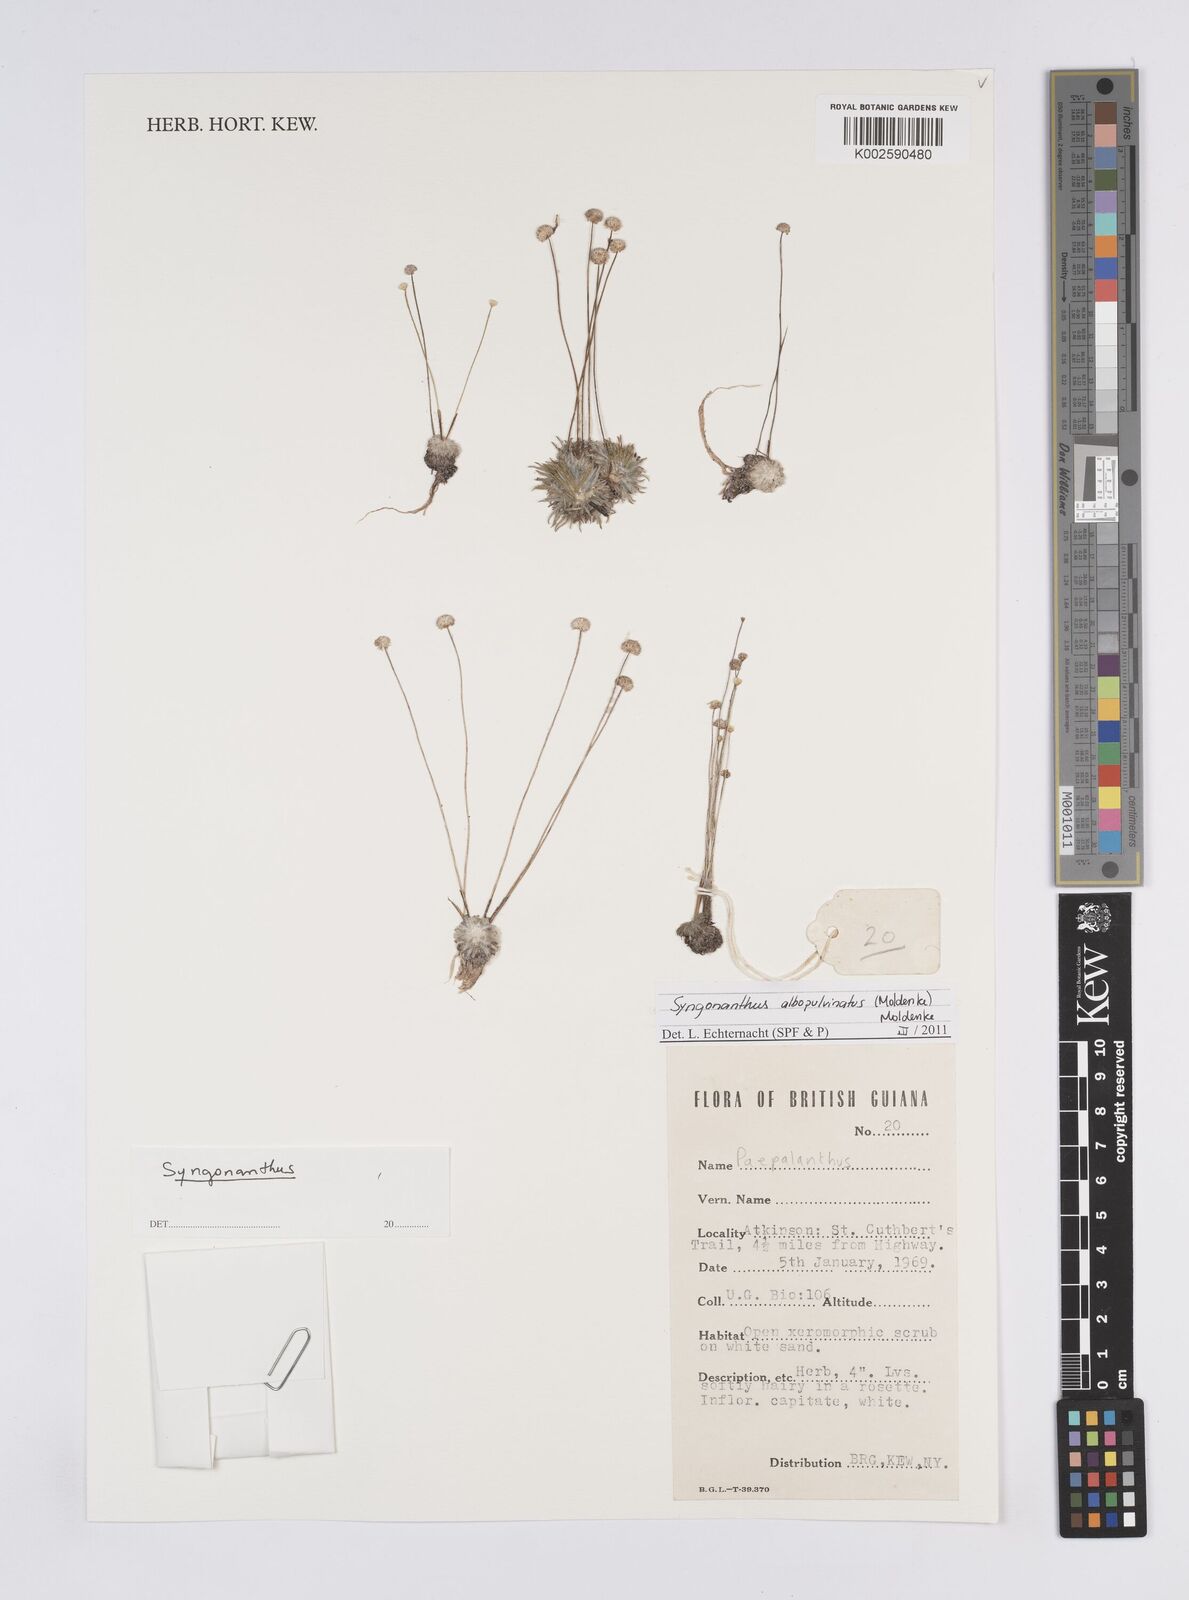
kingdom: Plantae
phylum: Tracheophyta
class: Liliopsida
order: Poales
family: Eriocaulaceae
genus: Syngonanthus
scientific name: Syngonanthus albopulvinatus
